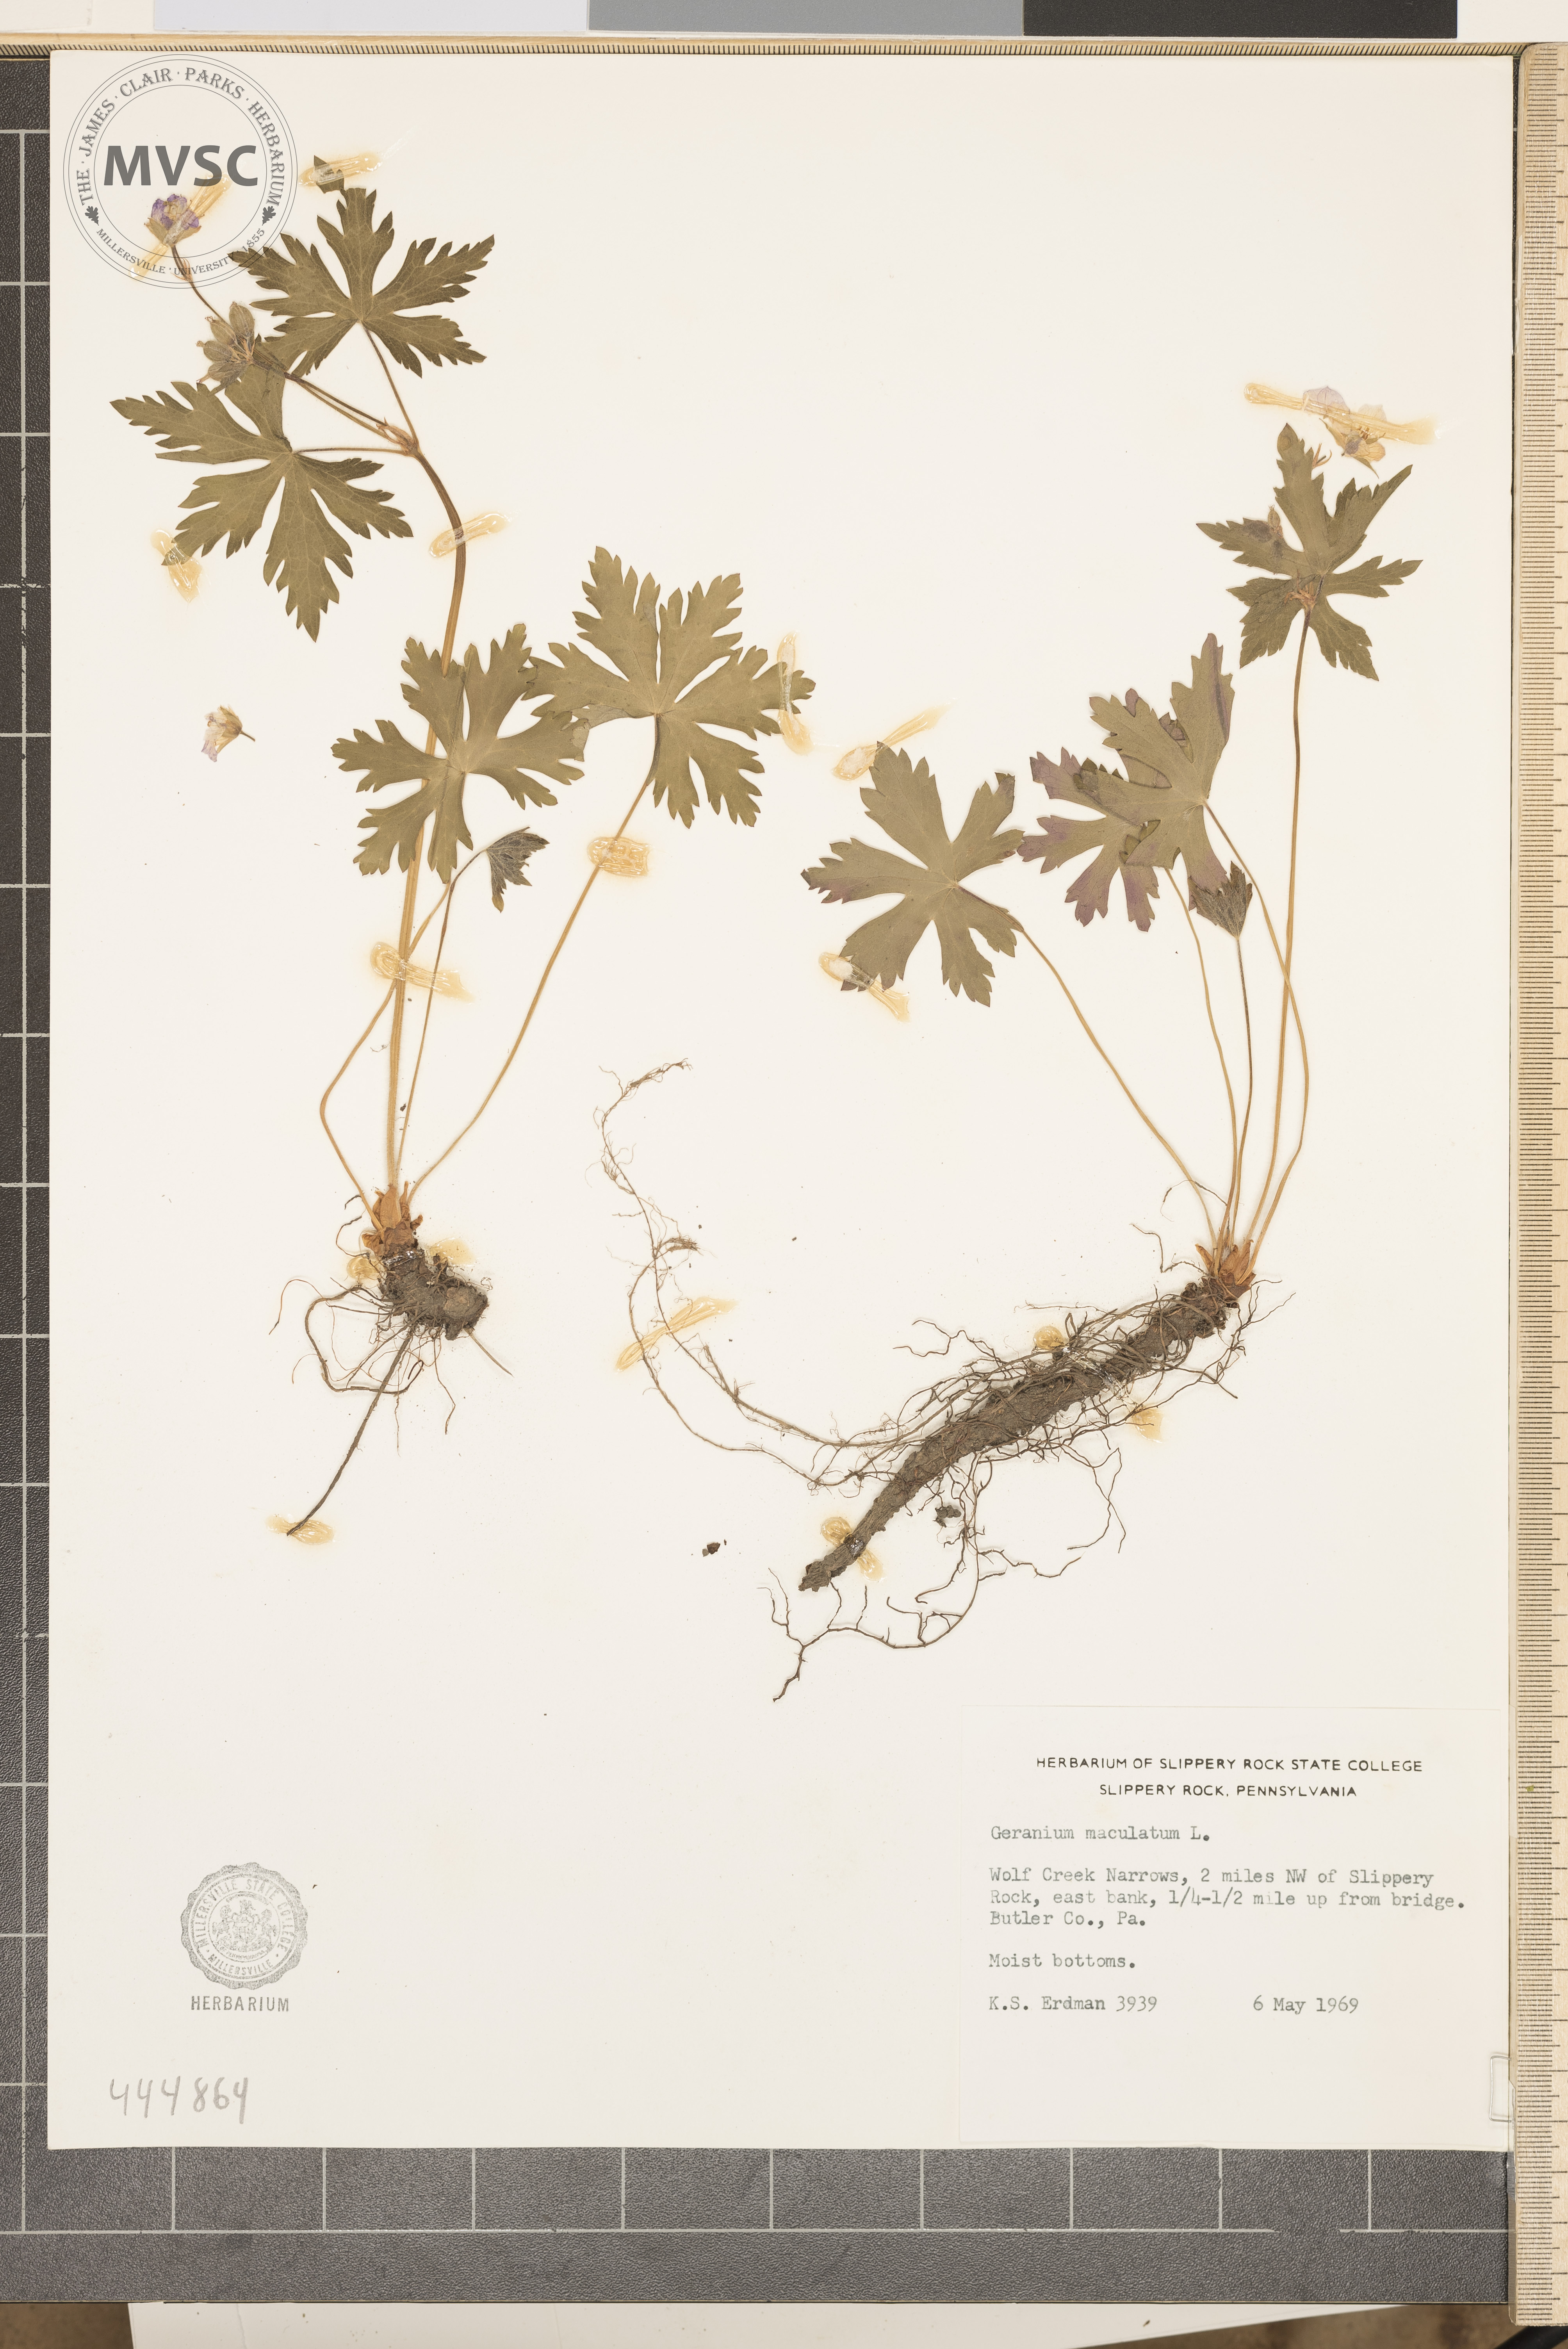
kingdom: Plantae
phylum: Tracheophyta
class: Magnoliopsida
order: Geraniales
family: Geraniaceae
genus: Geranium
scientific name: Geranium maculatum
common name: Spotted geranium
